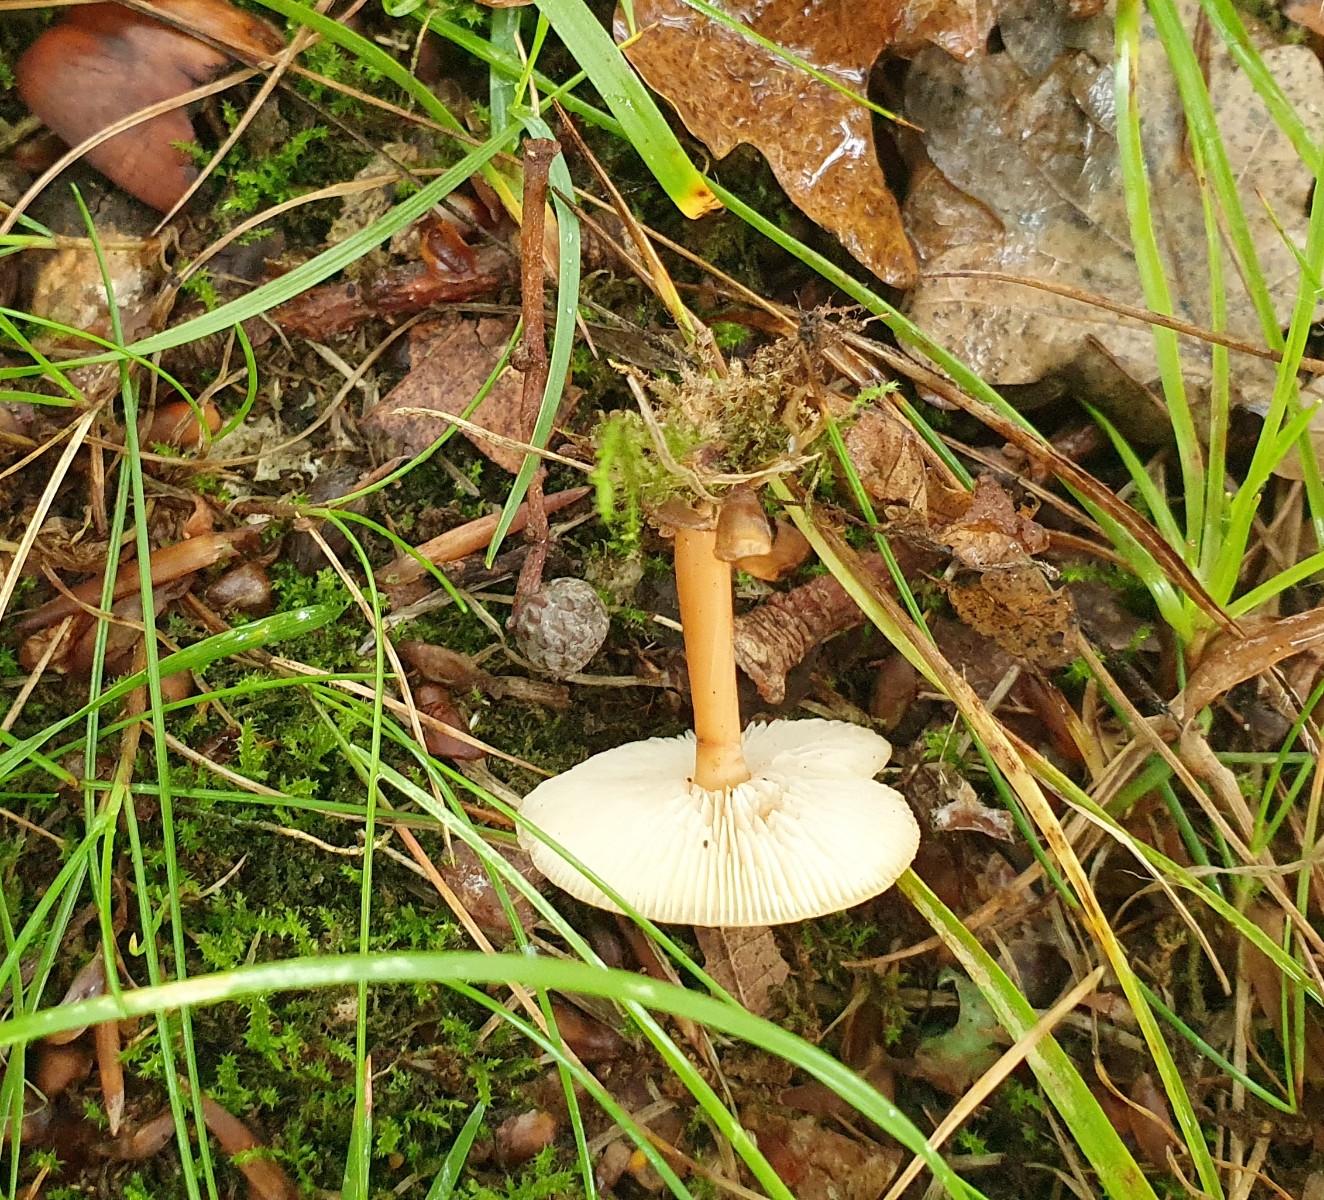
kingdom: Fungi
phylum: Basidiomycota
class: Agaricomycetes
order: Agaricales
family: Omphalotaceae
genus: Gymnopus
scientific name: Gymnopus dryophilus
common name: løv-fladhat
